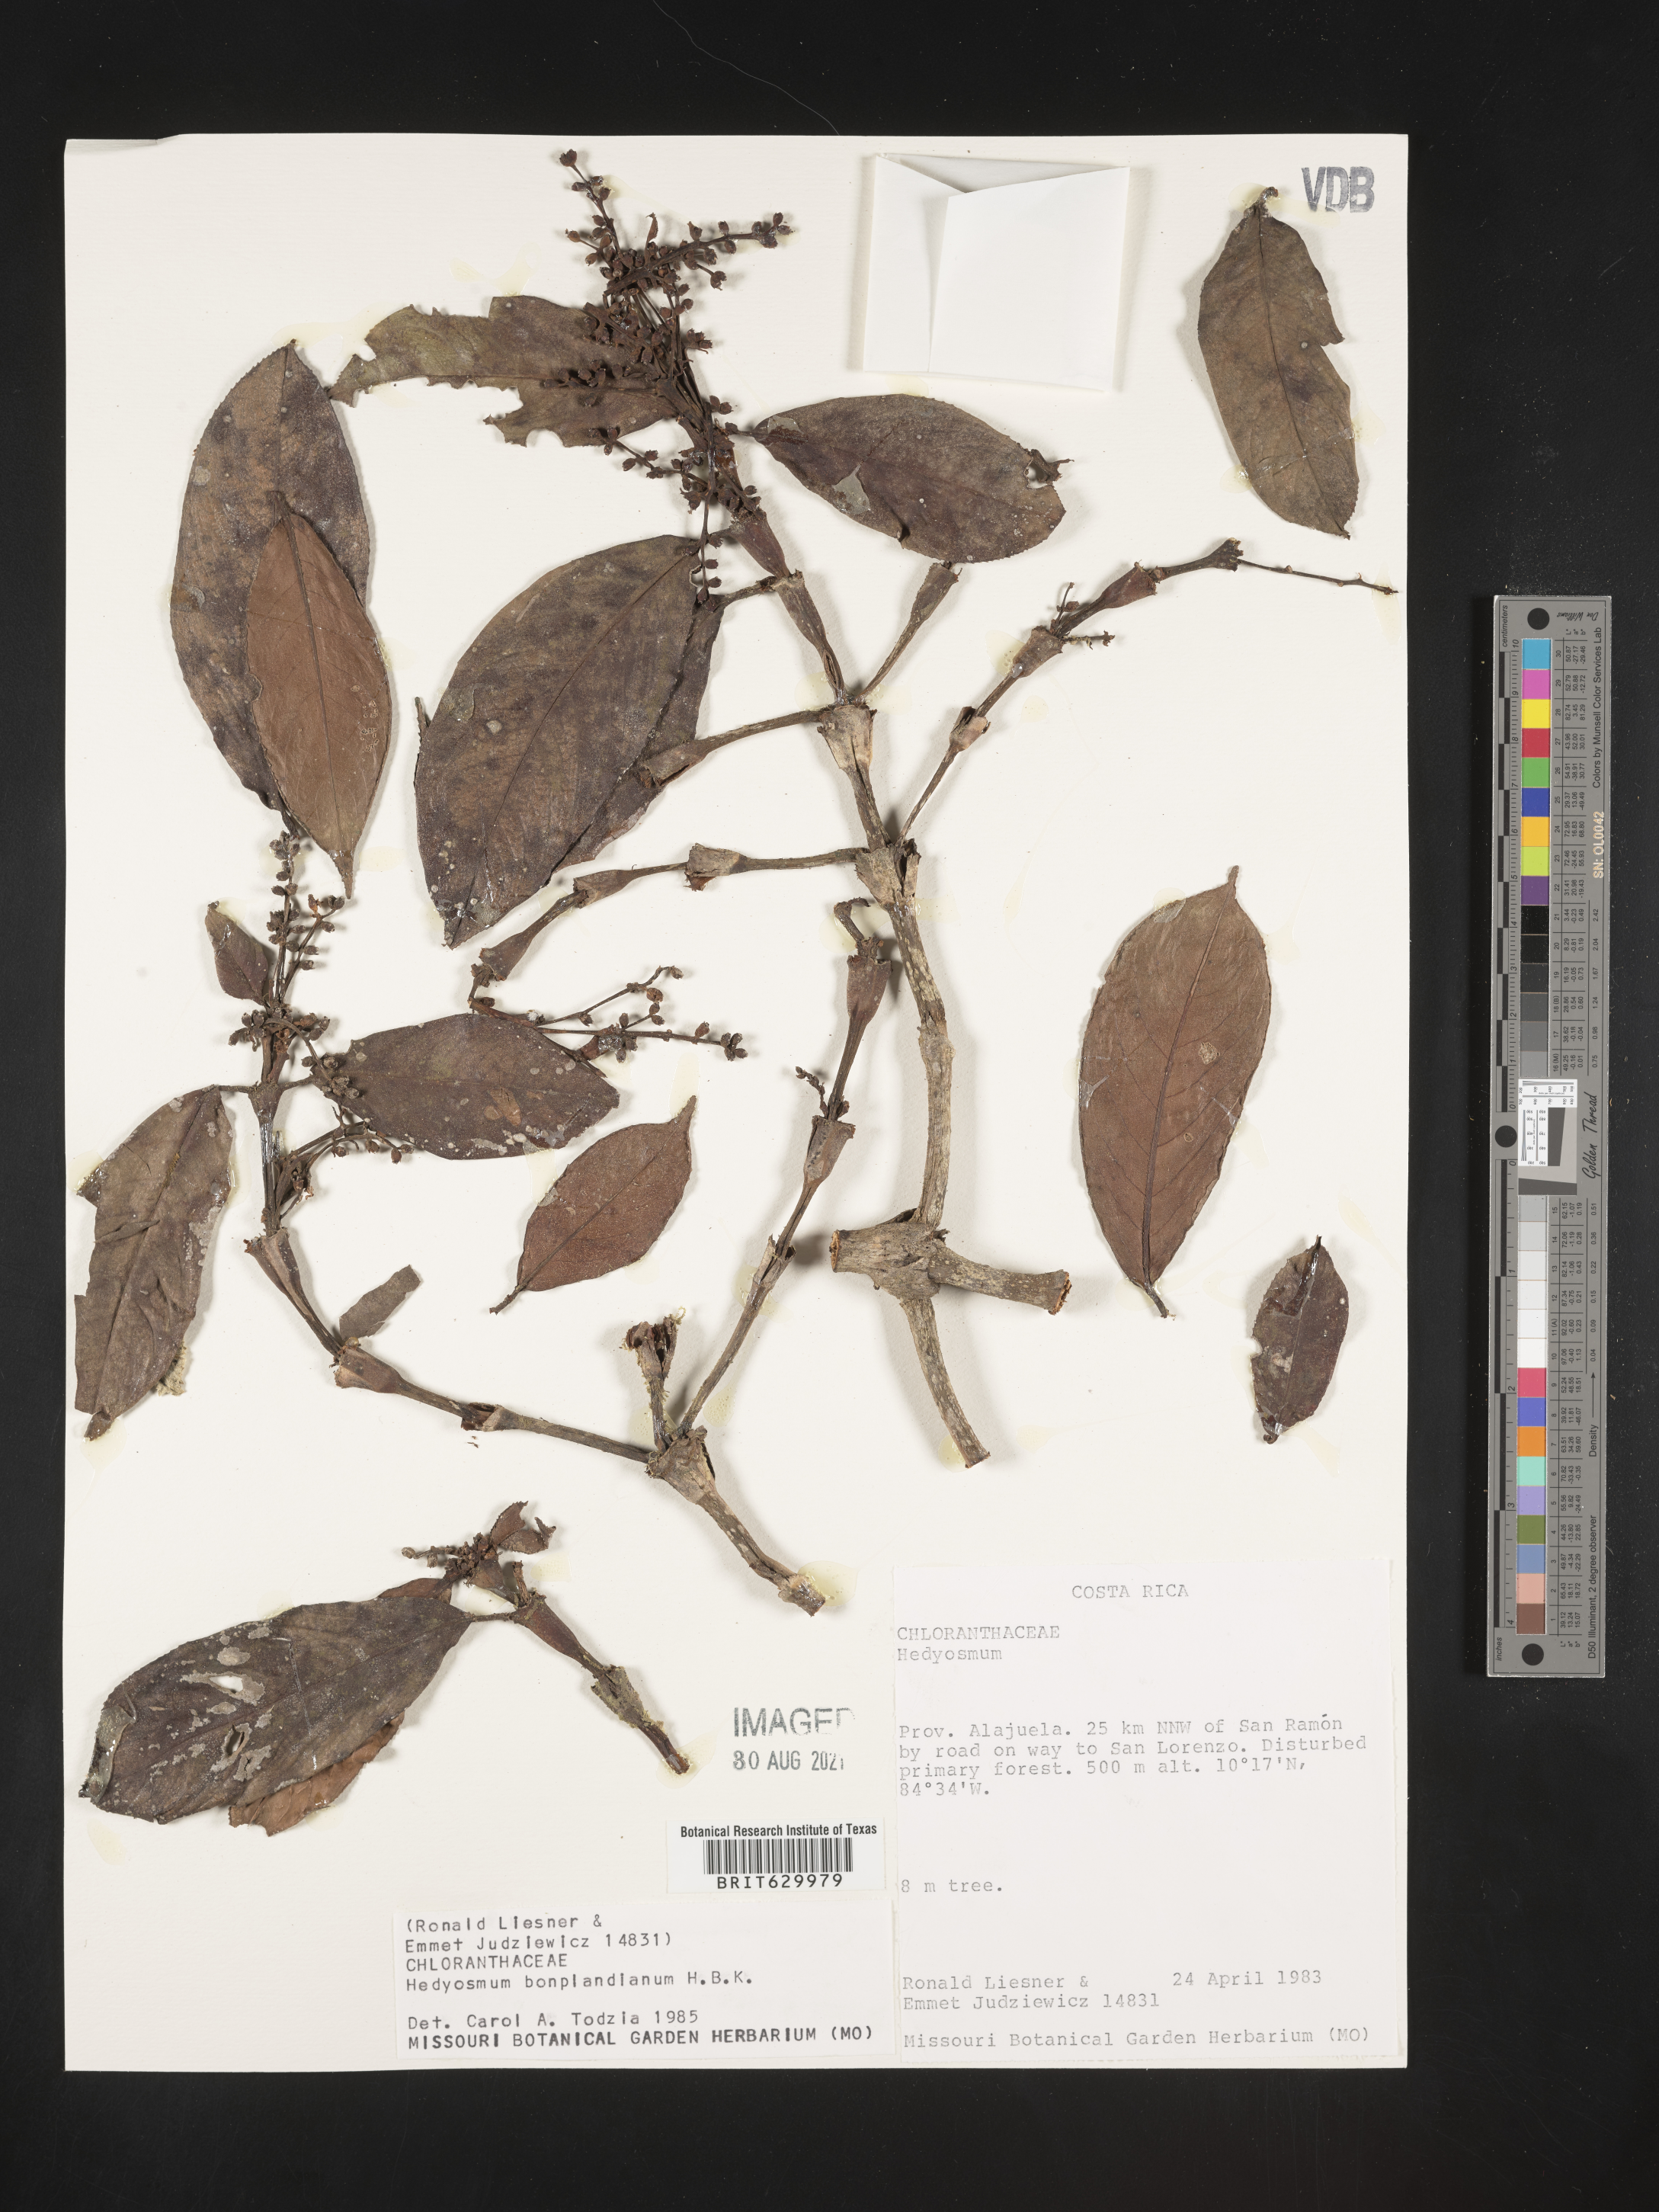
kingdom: Plantae
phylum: Tracheophyta
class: Magnoliopsida
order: Chloranthales
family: Chloranthaceae
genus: Hedyosmum
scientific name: Hedyosmum bonplandianum
